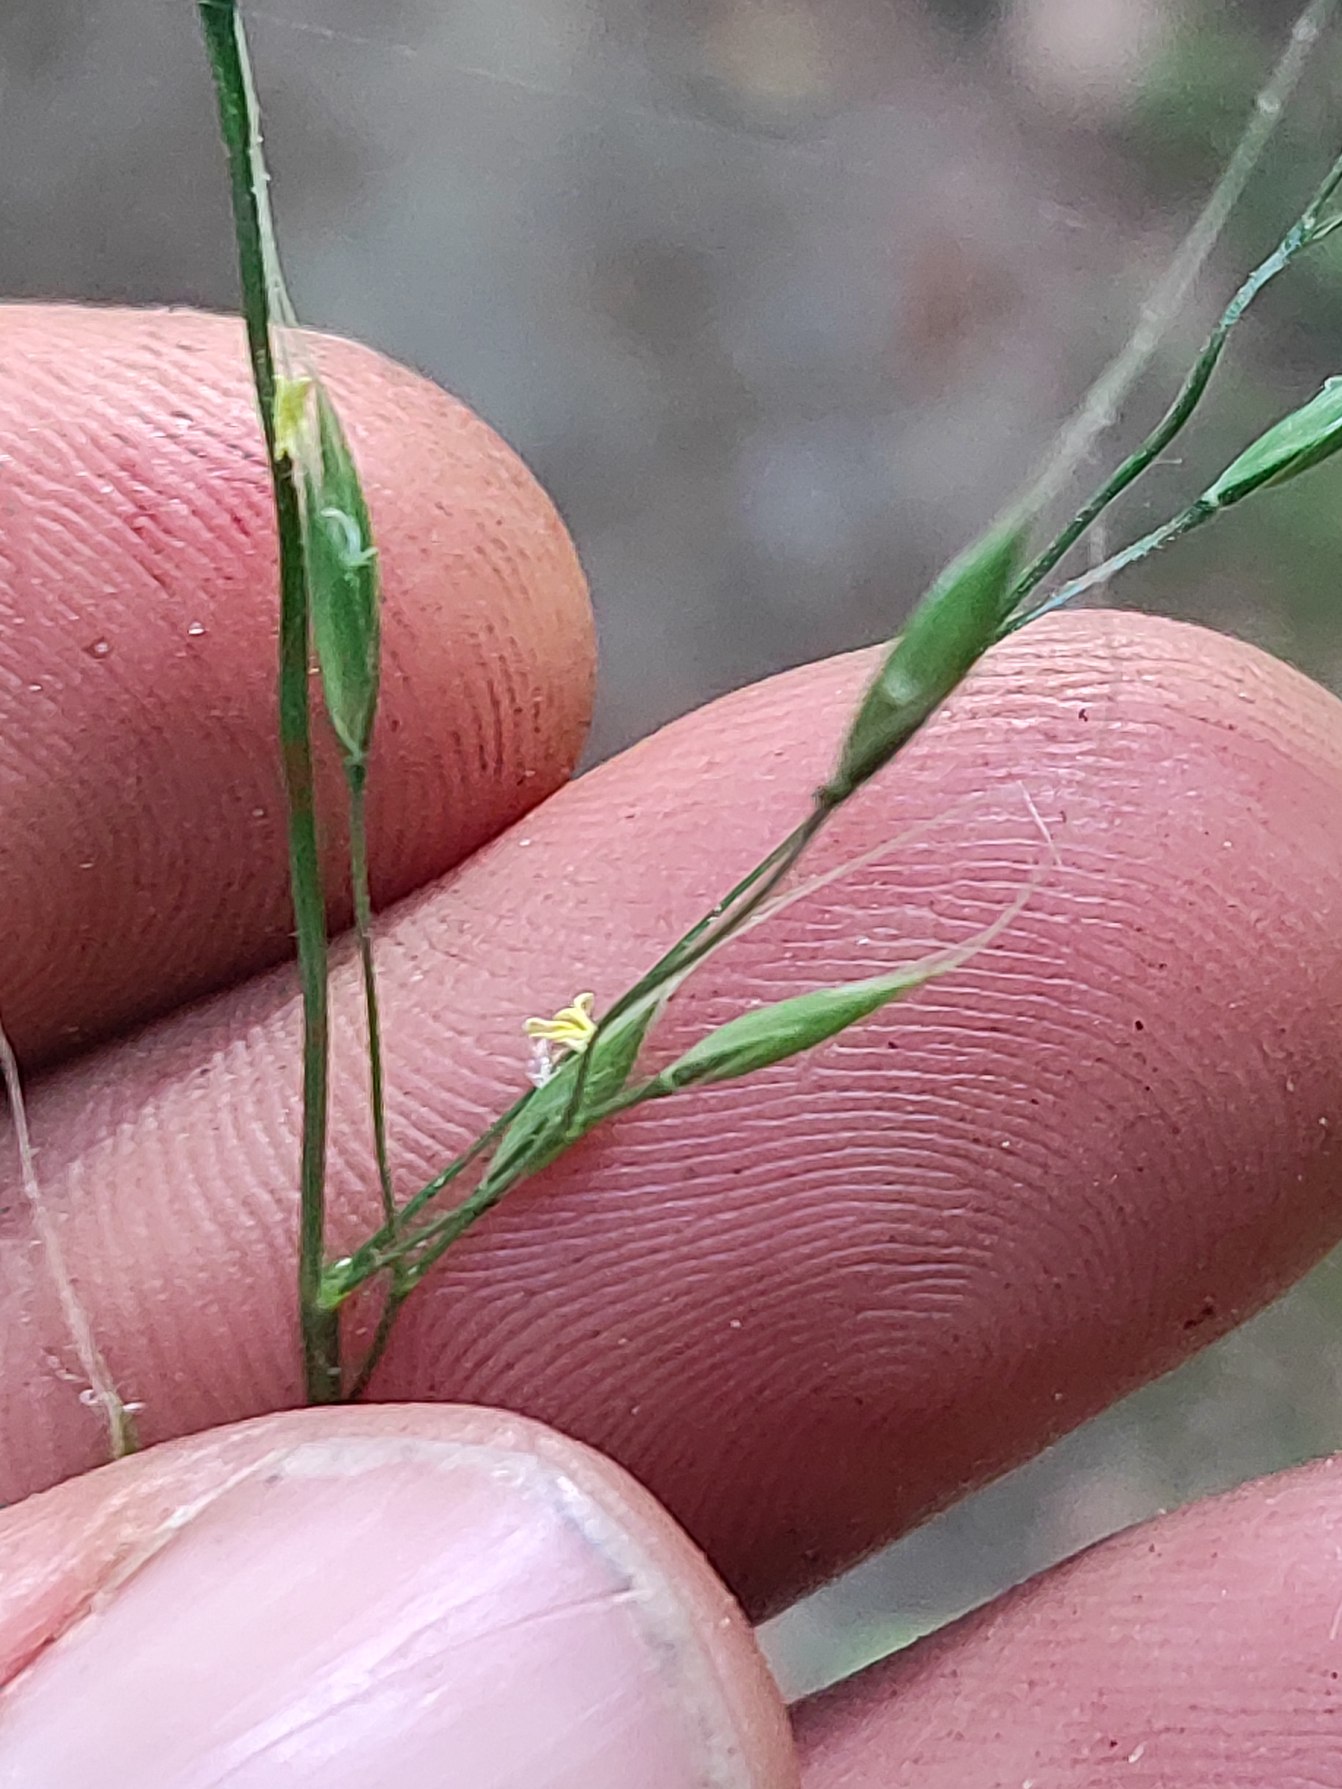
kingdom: Plantae
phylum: Tracheophyta
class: Liliopsida
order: Poales
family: Poaceae
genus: Lolium
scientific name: Lolium giganteum
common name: Kæmpe-svingel
